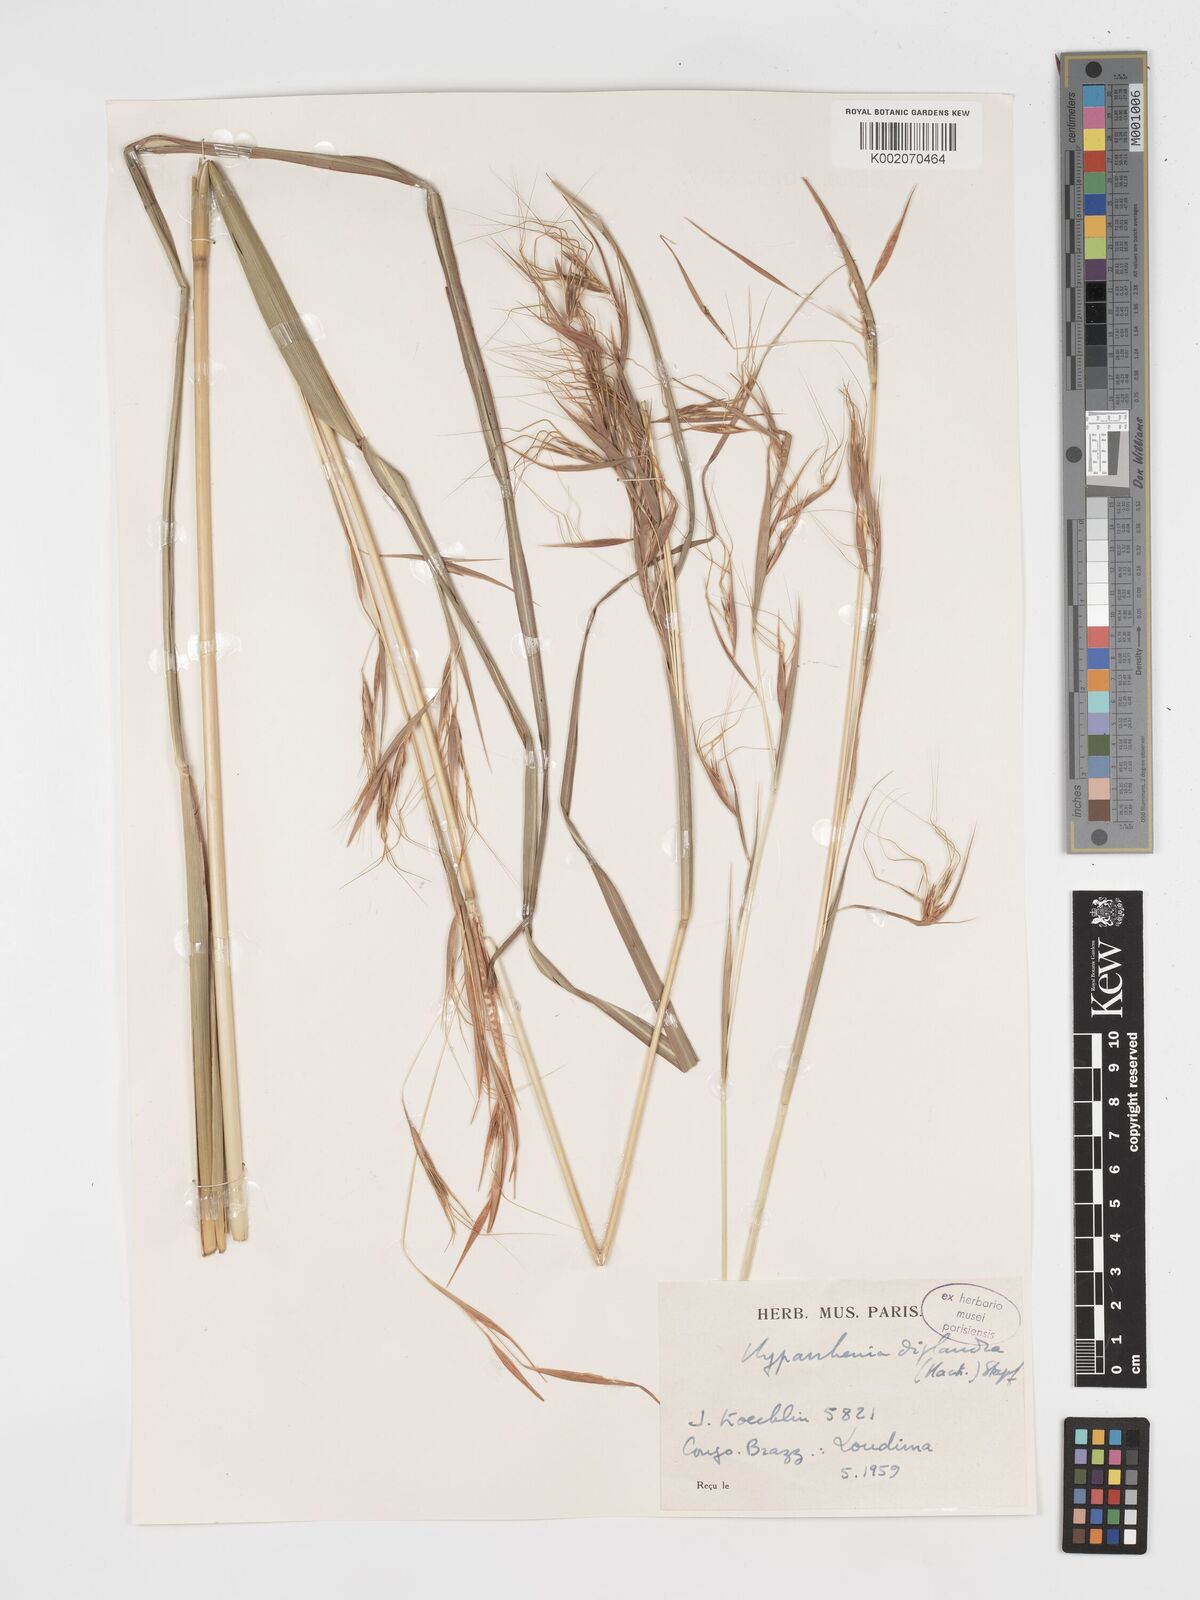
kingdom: Plantae
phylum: Tracheophyta
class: Liliopsida
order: Poales
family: Poaceae
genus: Hyparrhenia
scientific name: Hyparrhenia diplandra
